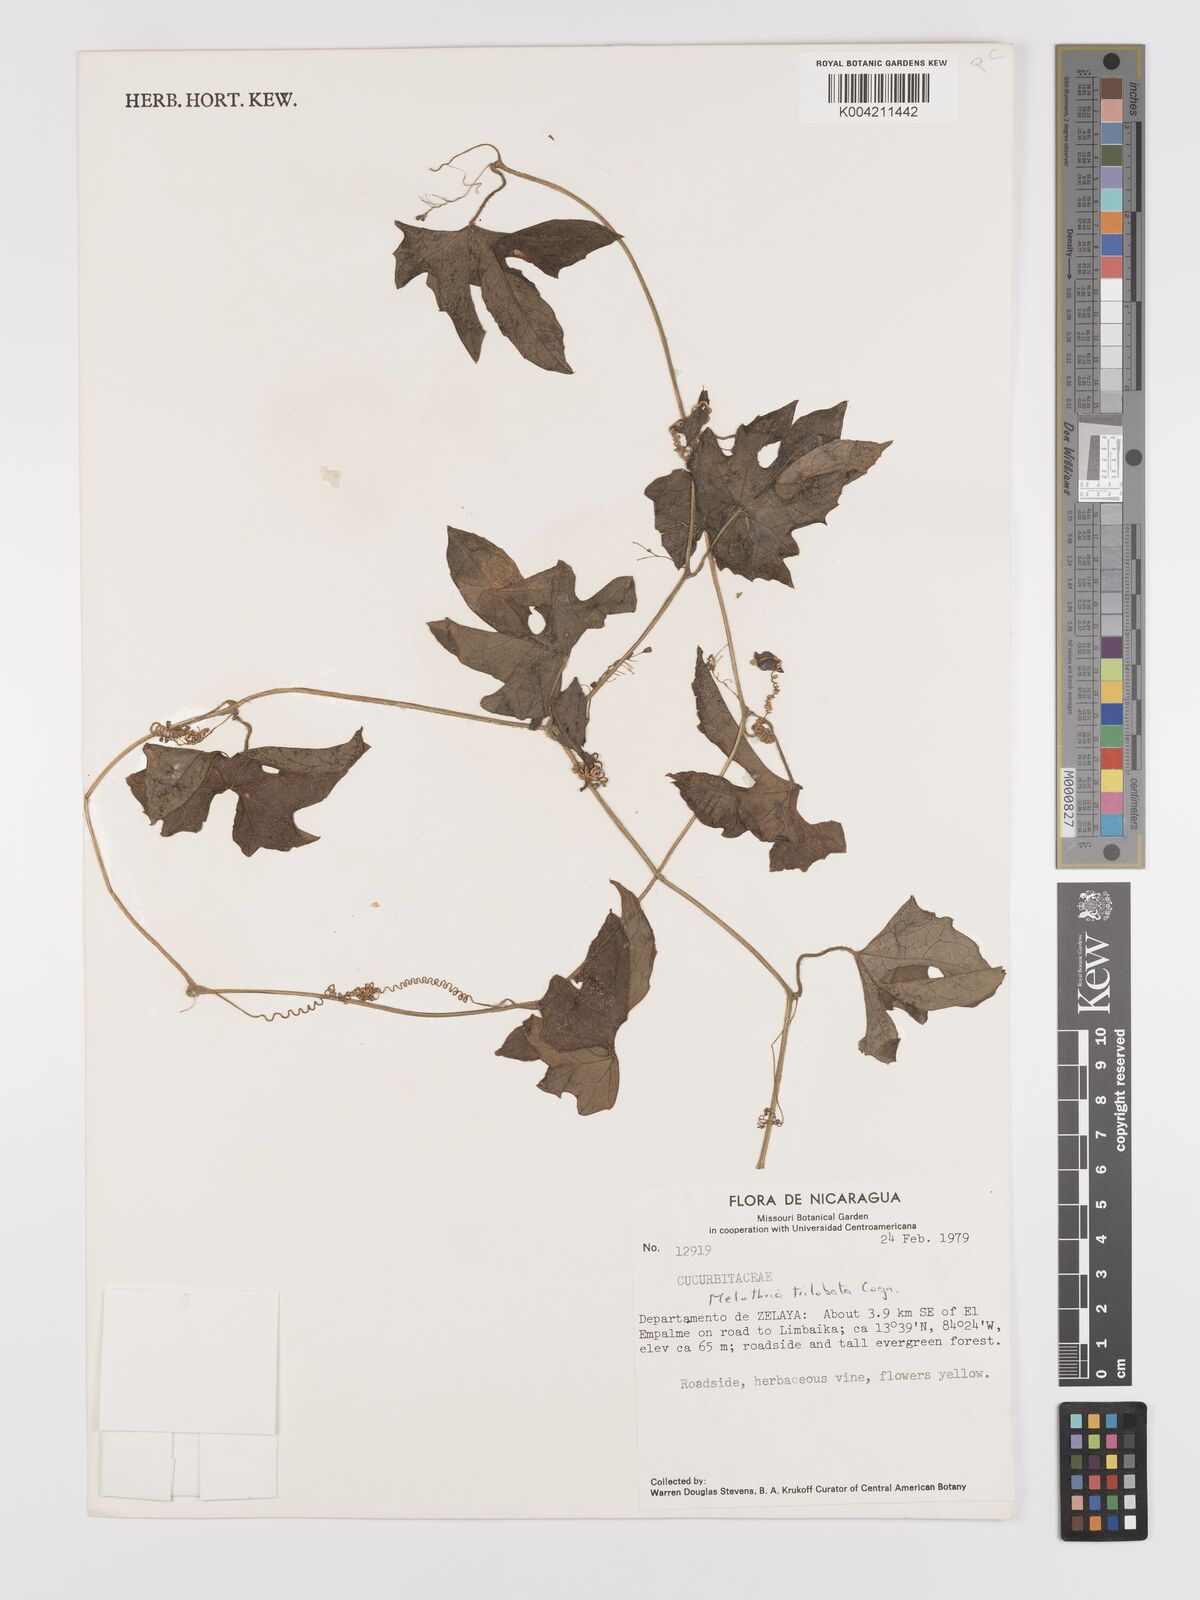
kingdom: Plantae
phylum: Tracheophyta
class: Magnoliopsida
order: Cucurbitales
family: Cucurbitaceae
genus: Melothria
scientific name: Melothria trilobata
